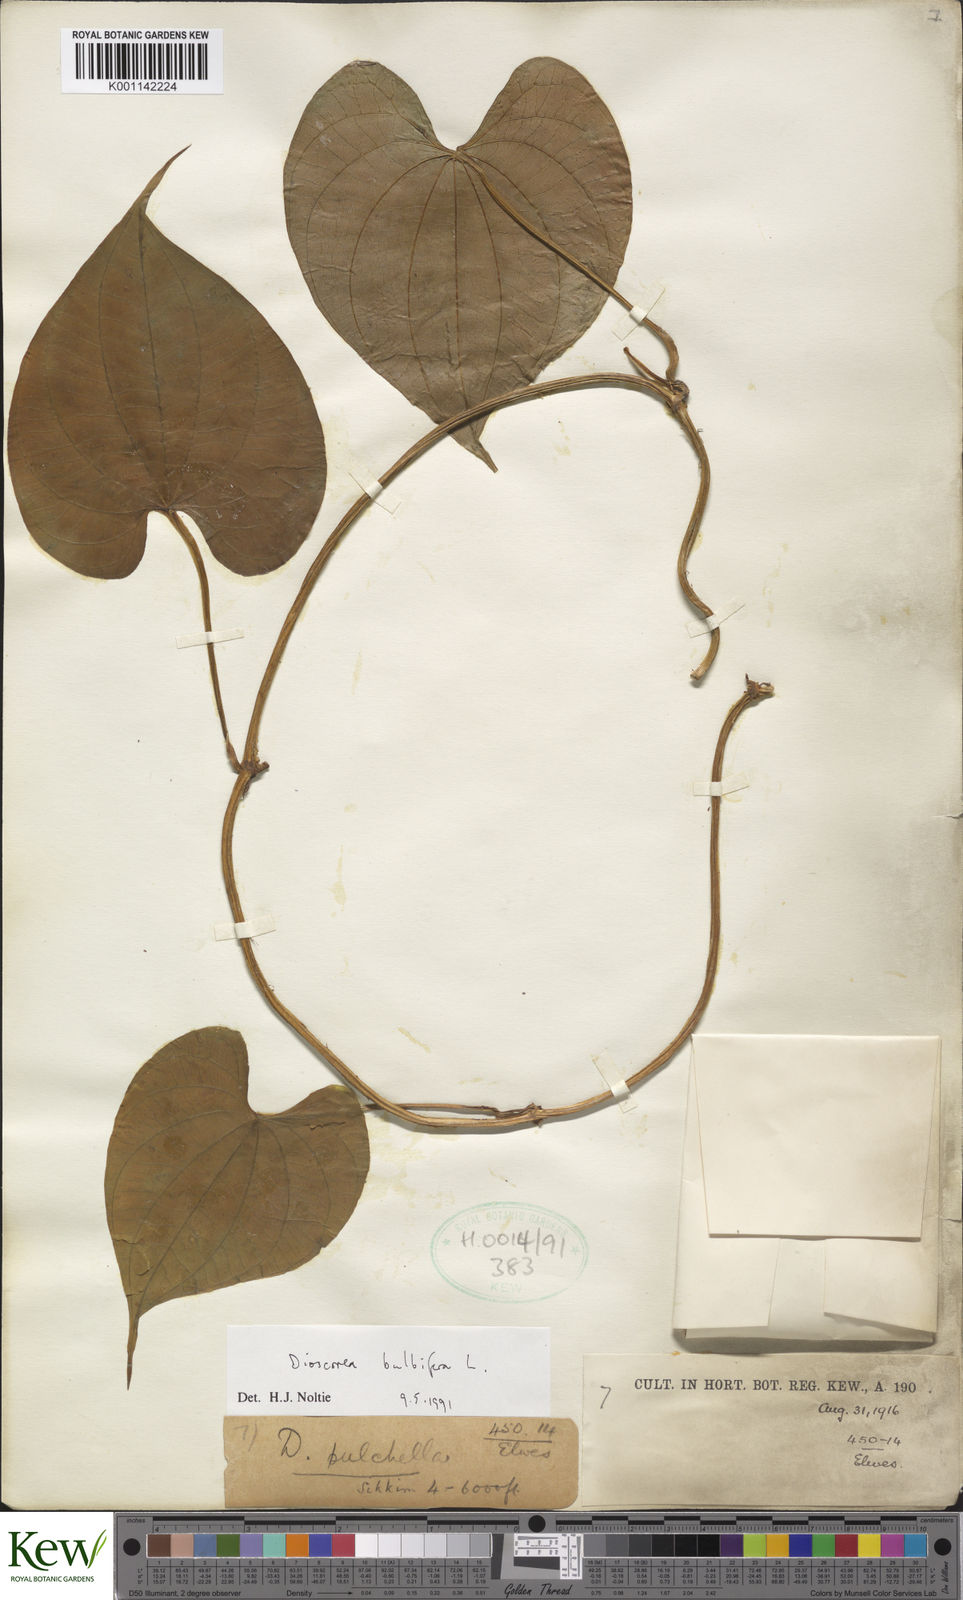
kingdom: Plantae
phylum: Tracheophyta
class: Liliopsida
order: Dioscoreales
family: Dioscoreaceae
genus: Dioscorea
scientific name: Dioscorea bulbifera
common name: Air yam
